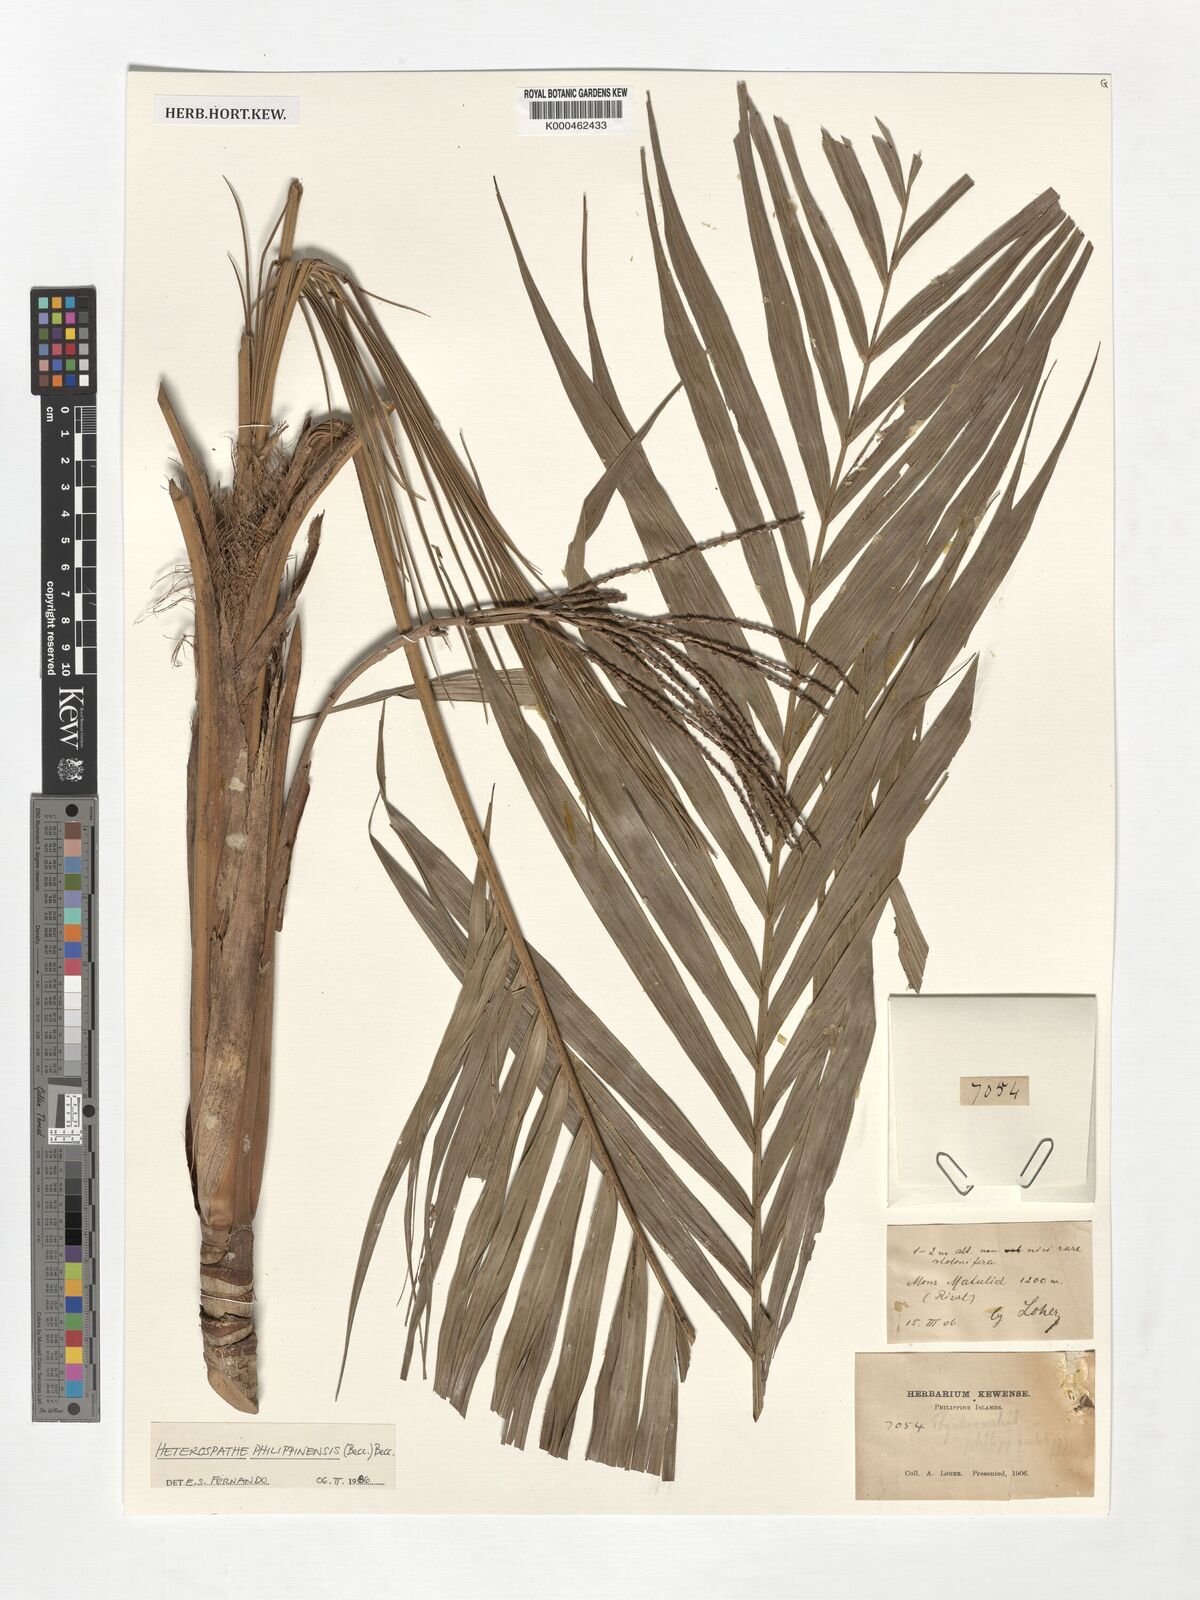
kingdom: Plantae
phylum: Tracheophyta
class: Liliopsida
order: Arecales
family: Arecaceae
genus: Heterospathe
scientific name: Heterospathe philippinensis
